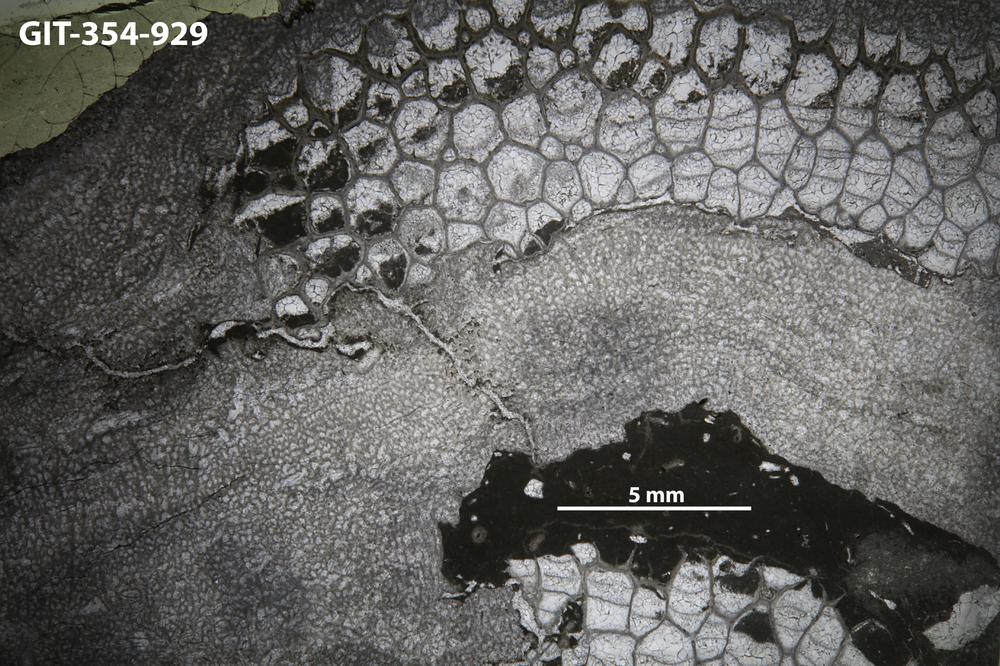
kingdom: Animalia
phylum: Cnidaria
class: Anthozoa
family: Favositidae
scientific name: Favositidae
